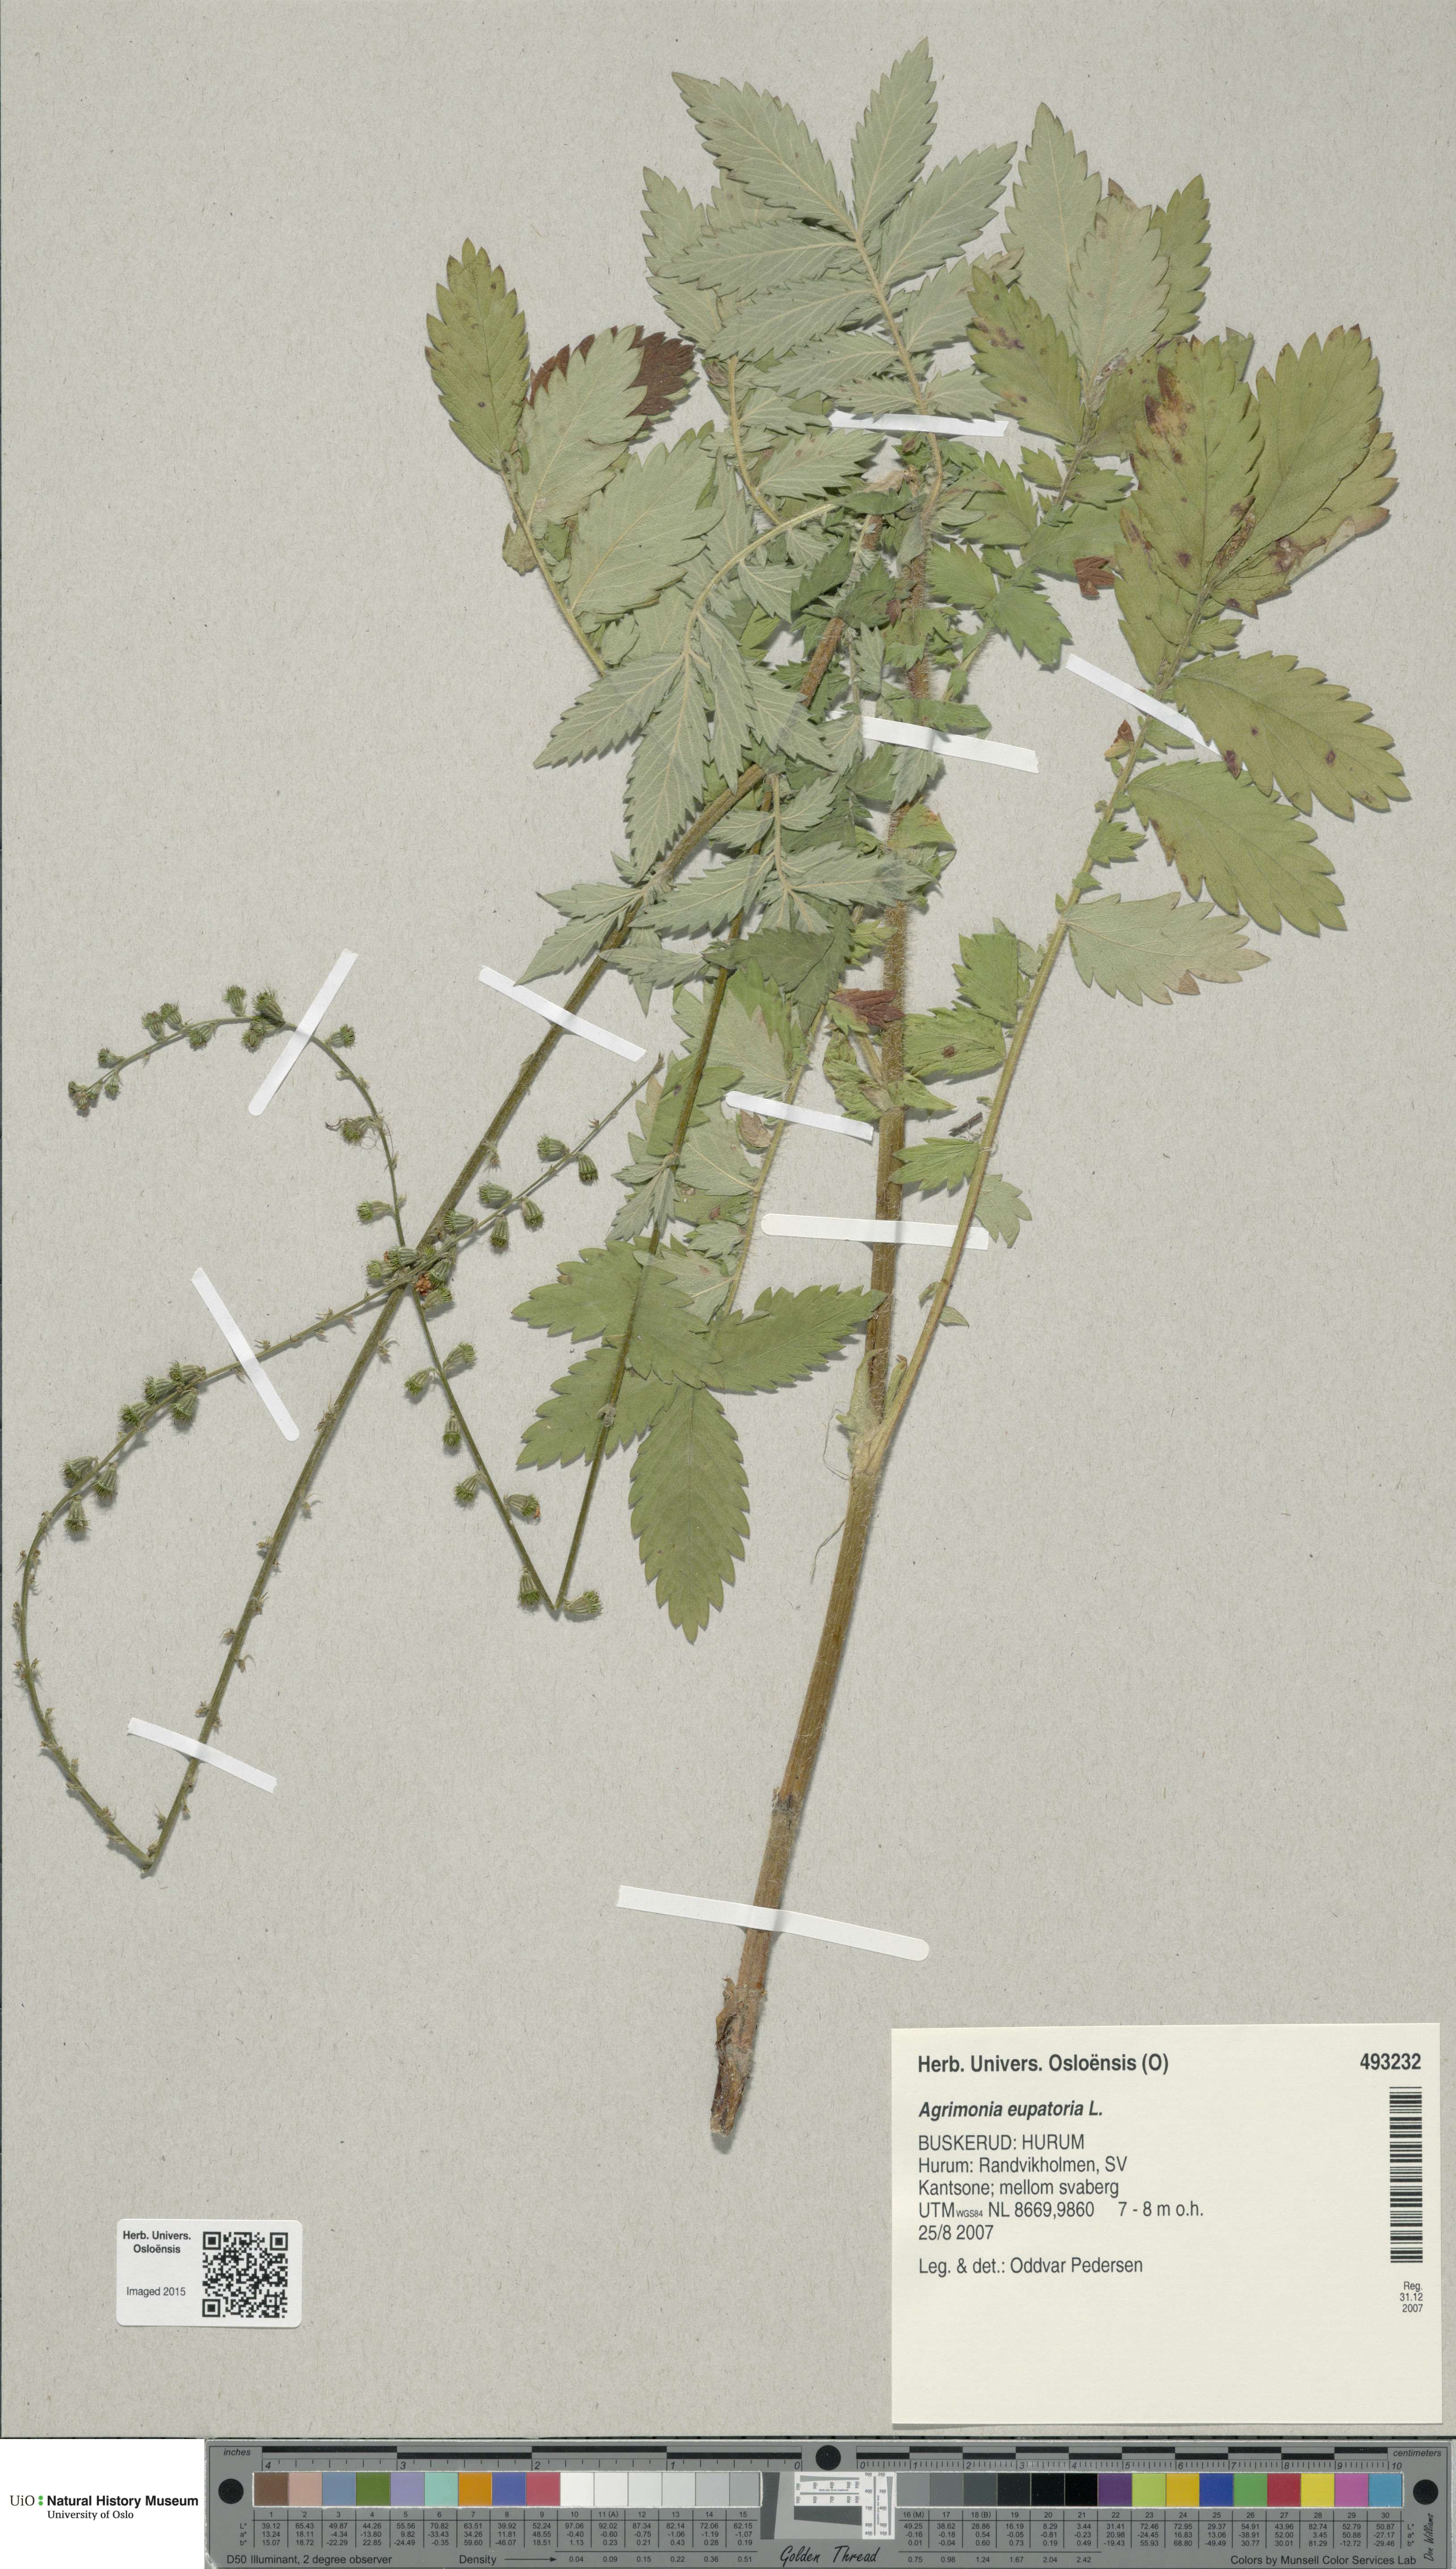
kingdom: Plantae
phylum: Tracheophyta
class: Magnoliopsida
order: Rosales
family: Rosaceae
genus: Agrimonia
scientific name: Agrimonia eupatoria
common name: Agrimony
